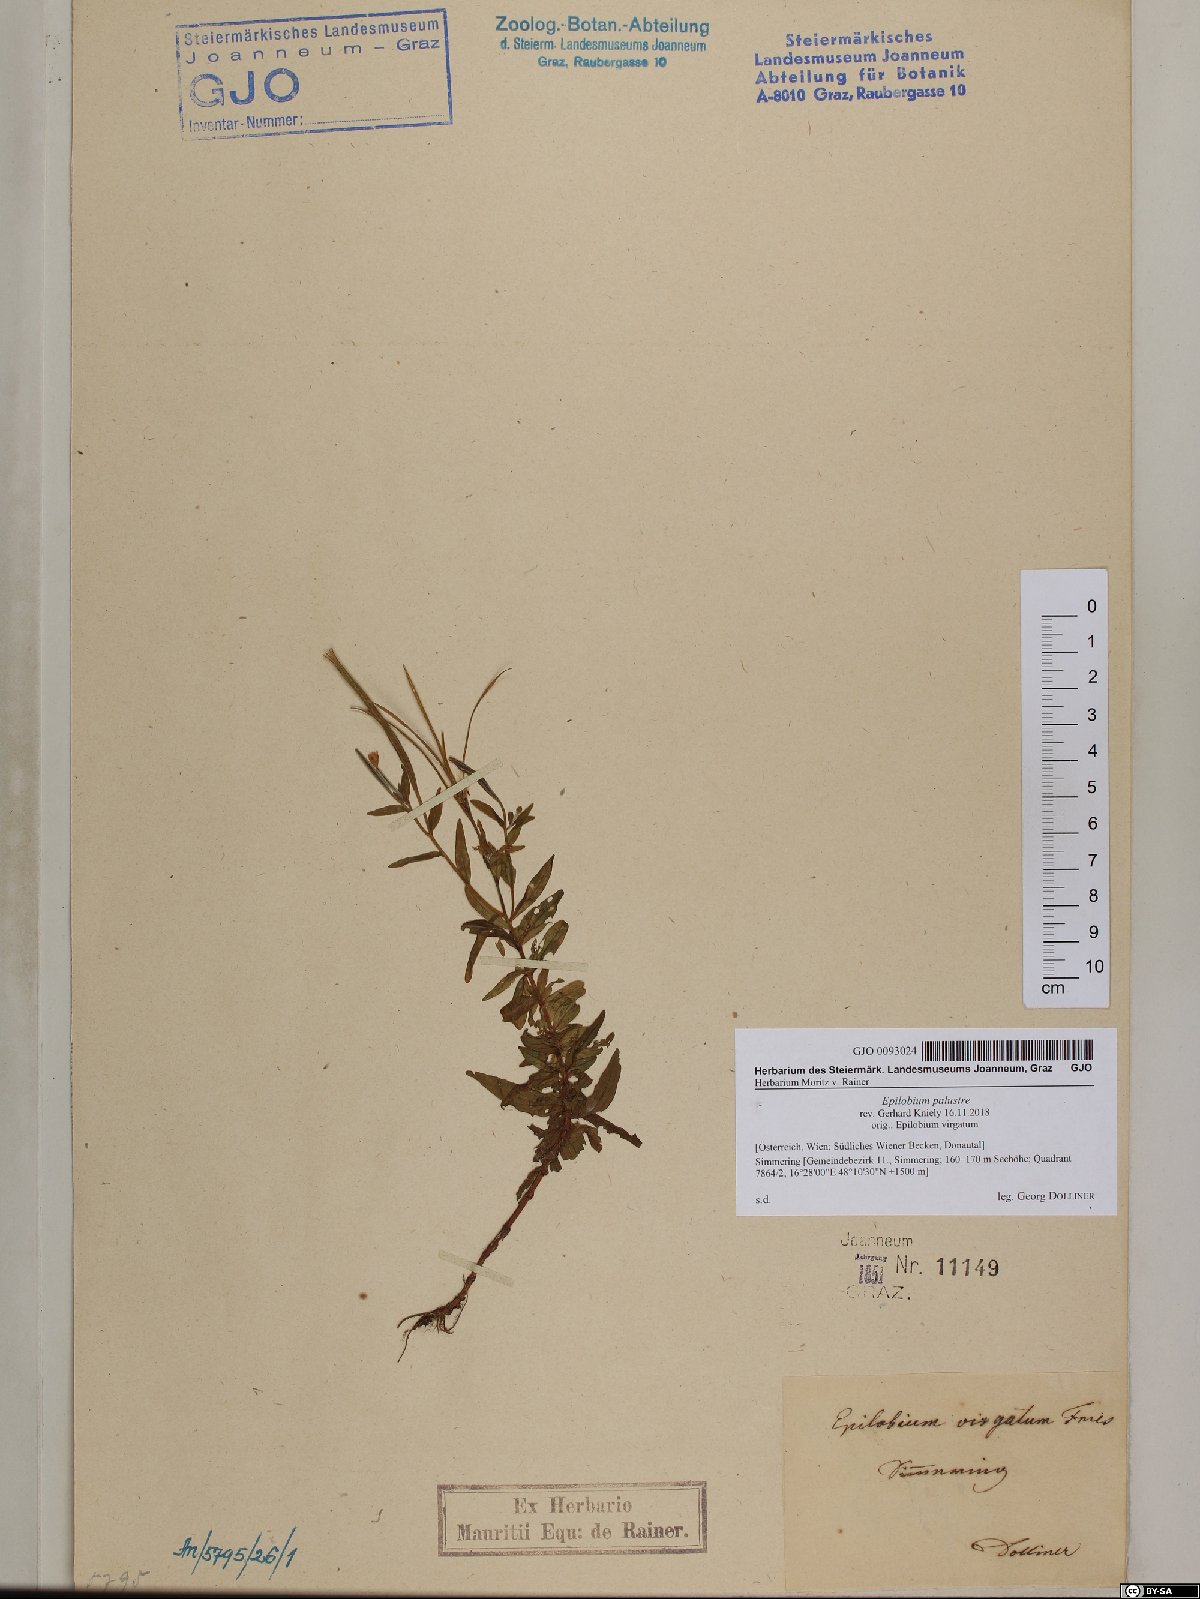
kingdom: Plantae
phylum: Tracheophyta
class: Magnoliopsida
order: Myrtales
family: Onagraceae
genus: Epilobium
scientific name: Epilobium palustre
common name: Marsh willowherb
